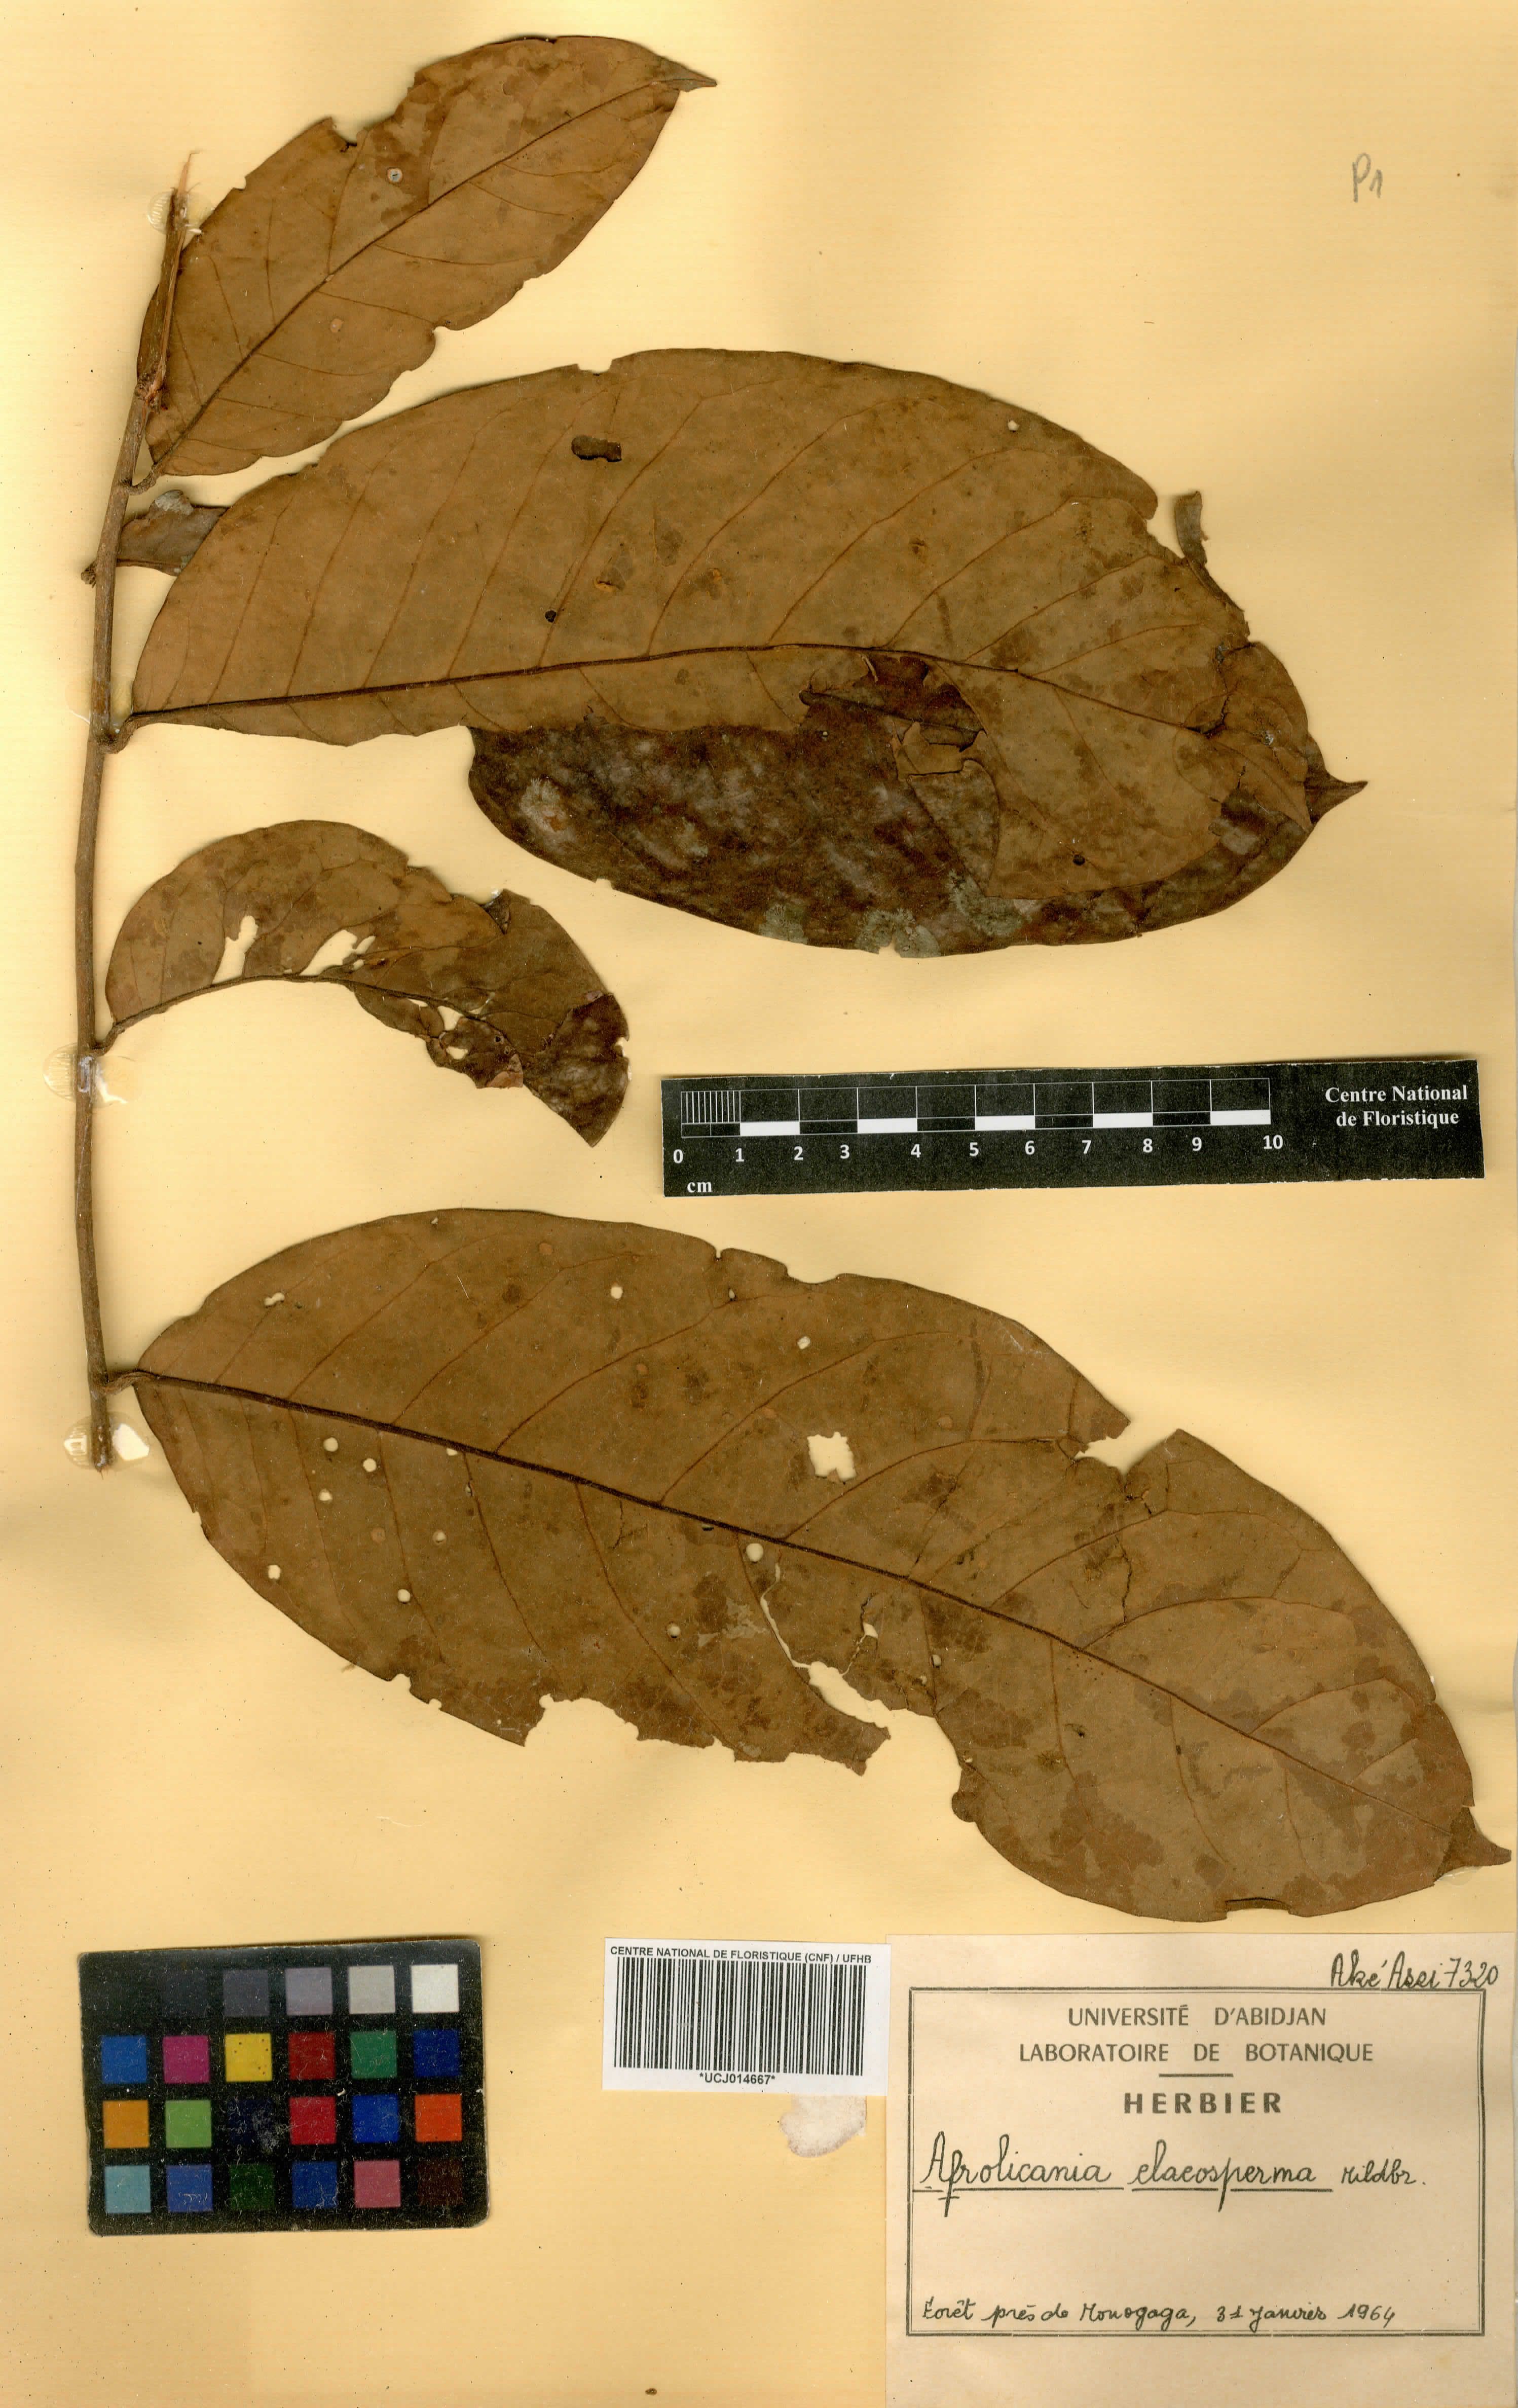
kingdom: Plantae
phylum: Tracheophyta
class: Magnoliopsida
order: Malpighiales
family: Chrysobalanaceae
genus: Afrolicania
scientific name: Afrolicania elaeosperma
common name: Nikko
